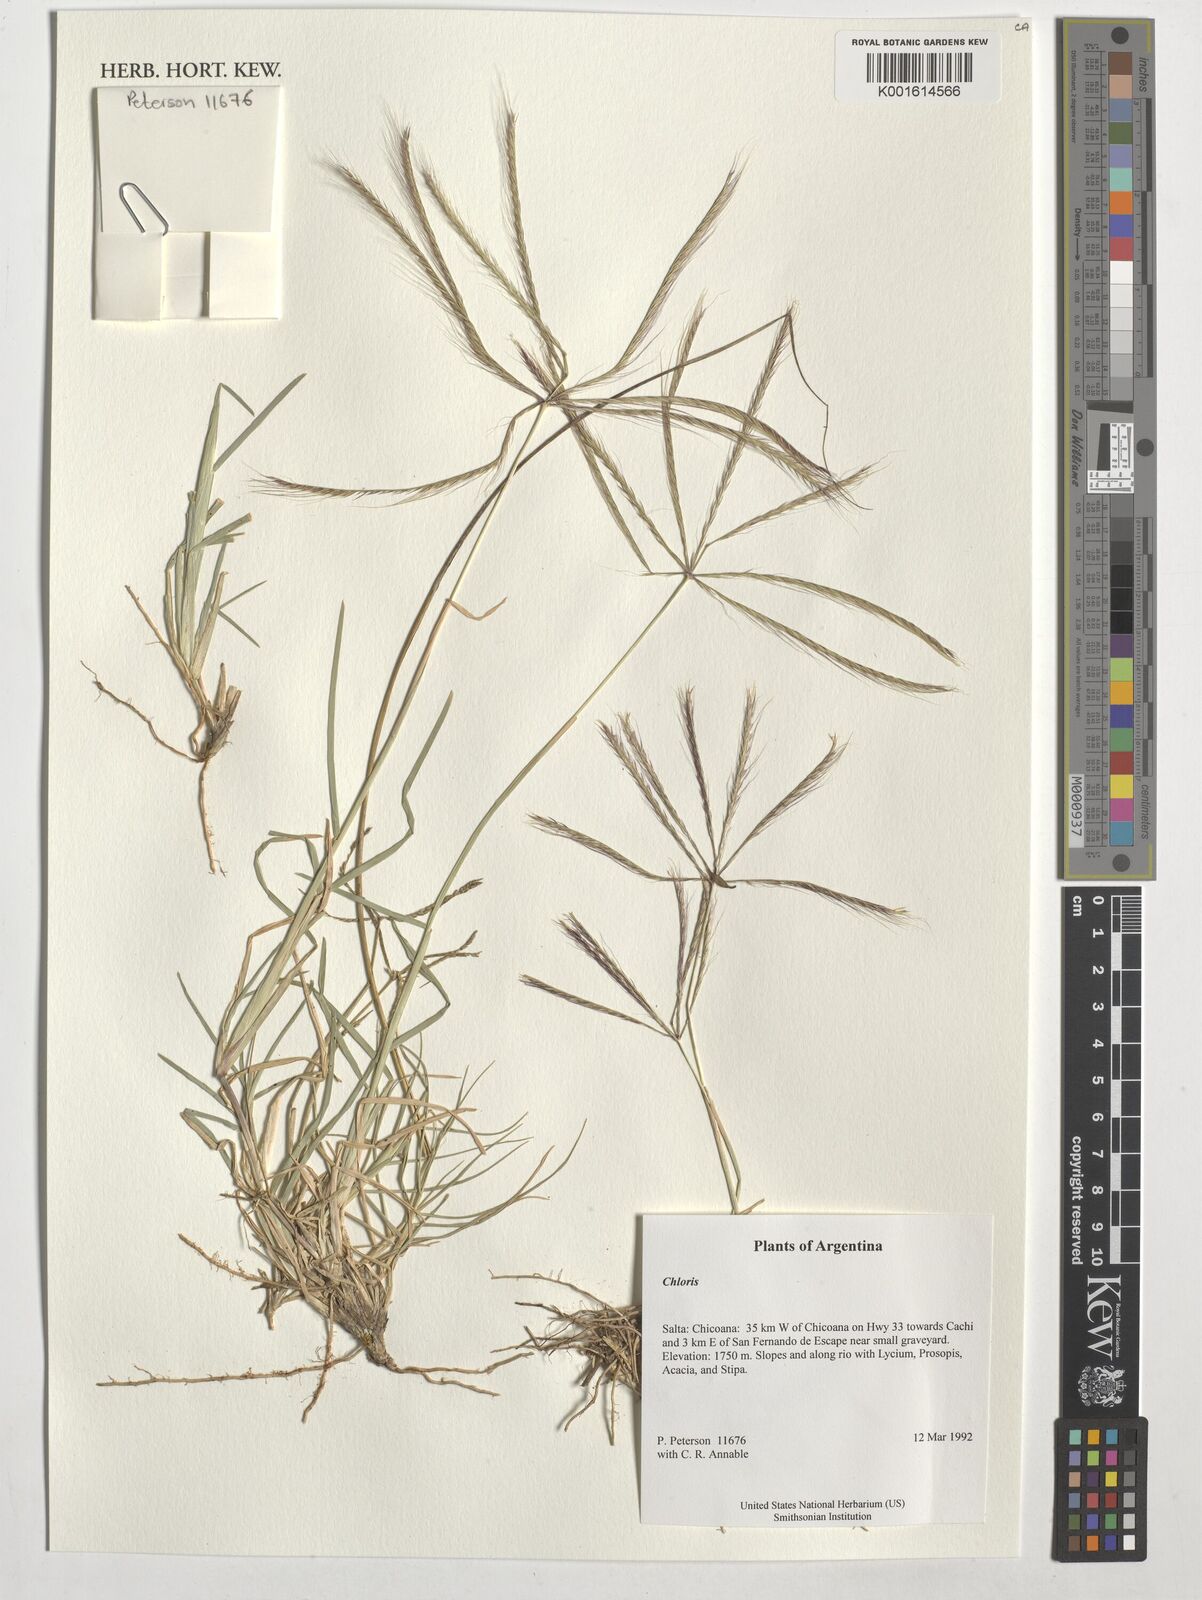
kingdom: Plantae
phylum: Tracheophyta
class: Liliopsida
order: Poales
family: Poaceae
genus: Chloris
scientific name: Chloris
